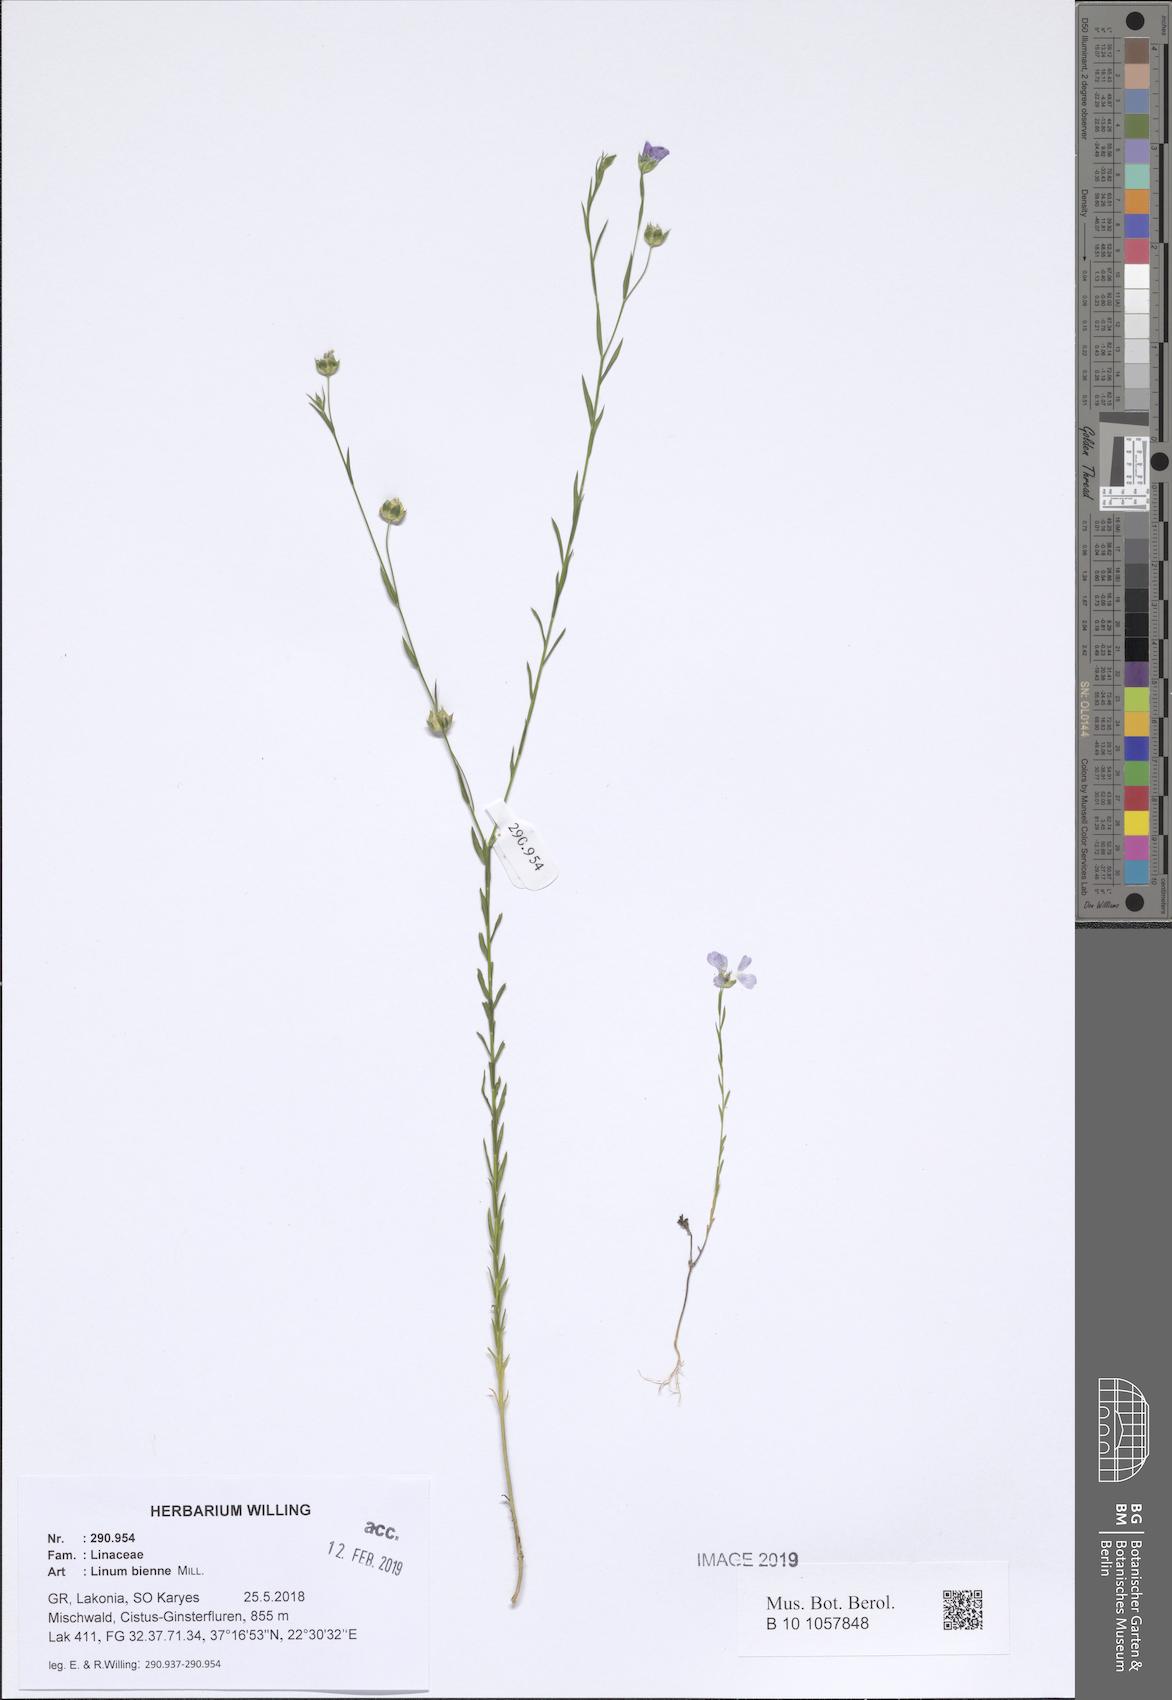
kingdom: Plantae
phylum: Tracheophyta
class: Magnoliopsida
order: Malpighiales
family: Linaceae
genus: Linum
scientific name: Linum bienne
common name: Pale flax
